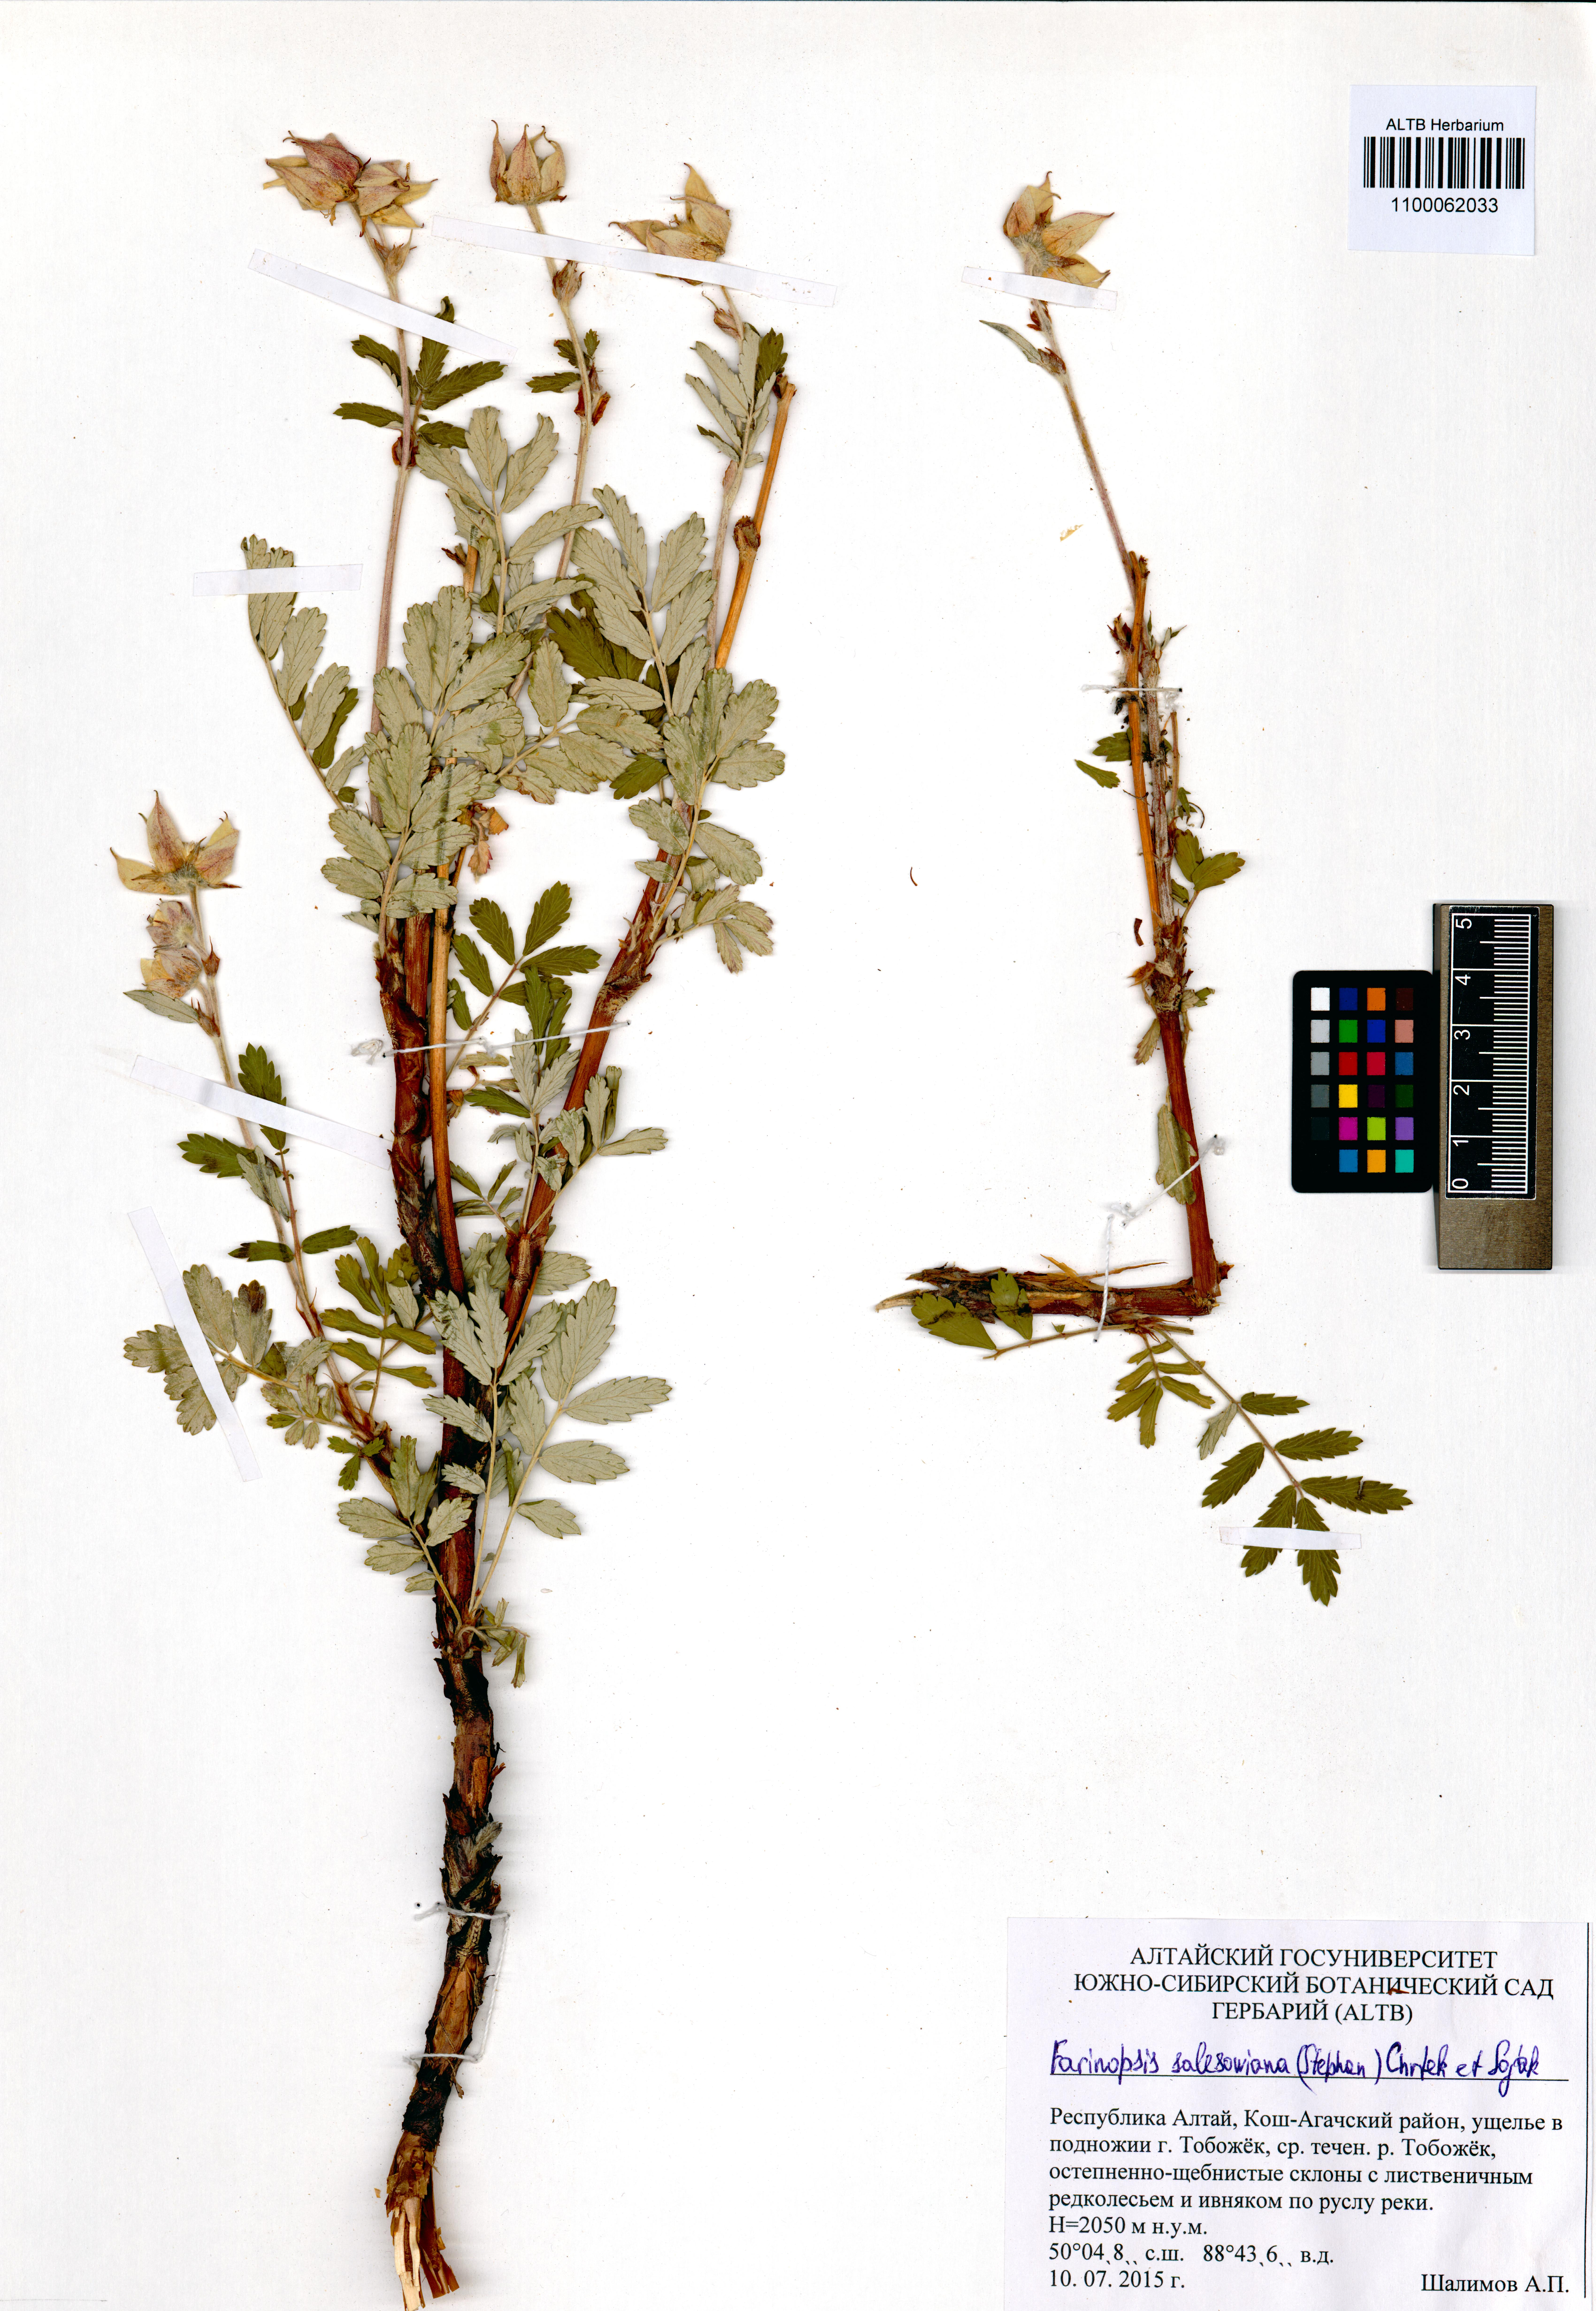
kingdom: Plantae
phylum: Tracheophyta
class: Magnoliopsida
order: Rosales
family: Rosaceae
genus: Farinopsis
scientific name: Farinopsis salesoviana
